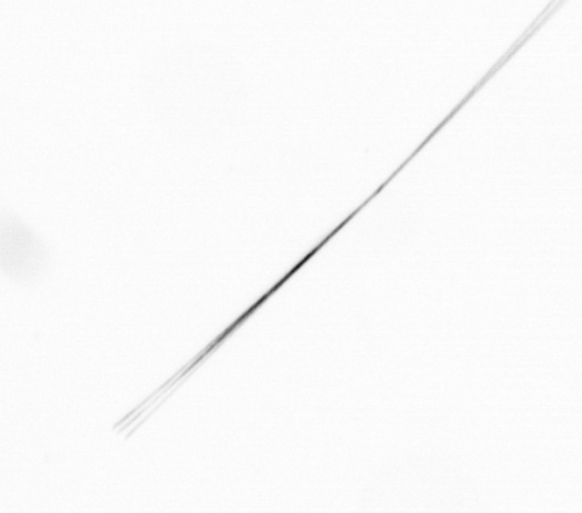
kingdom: Chromista
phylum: Ochrophyta
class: Bacillariophyceae
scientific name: Bacillariophyceae
